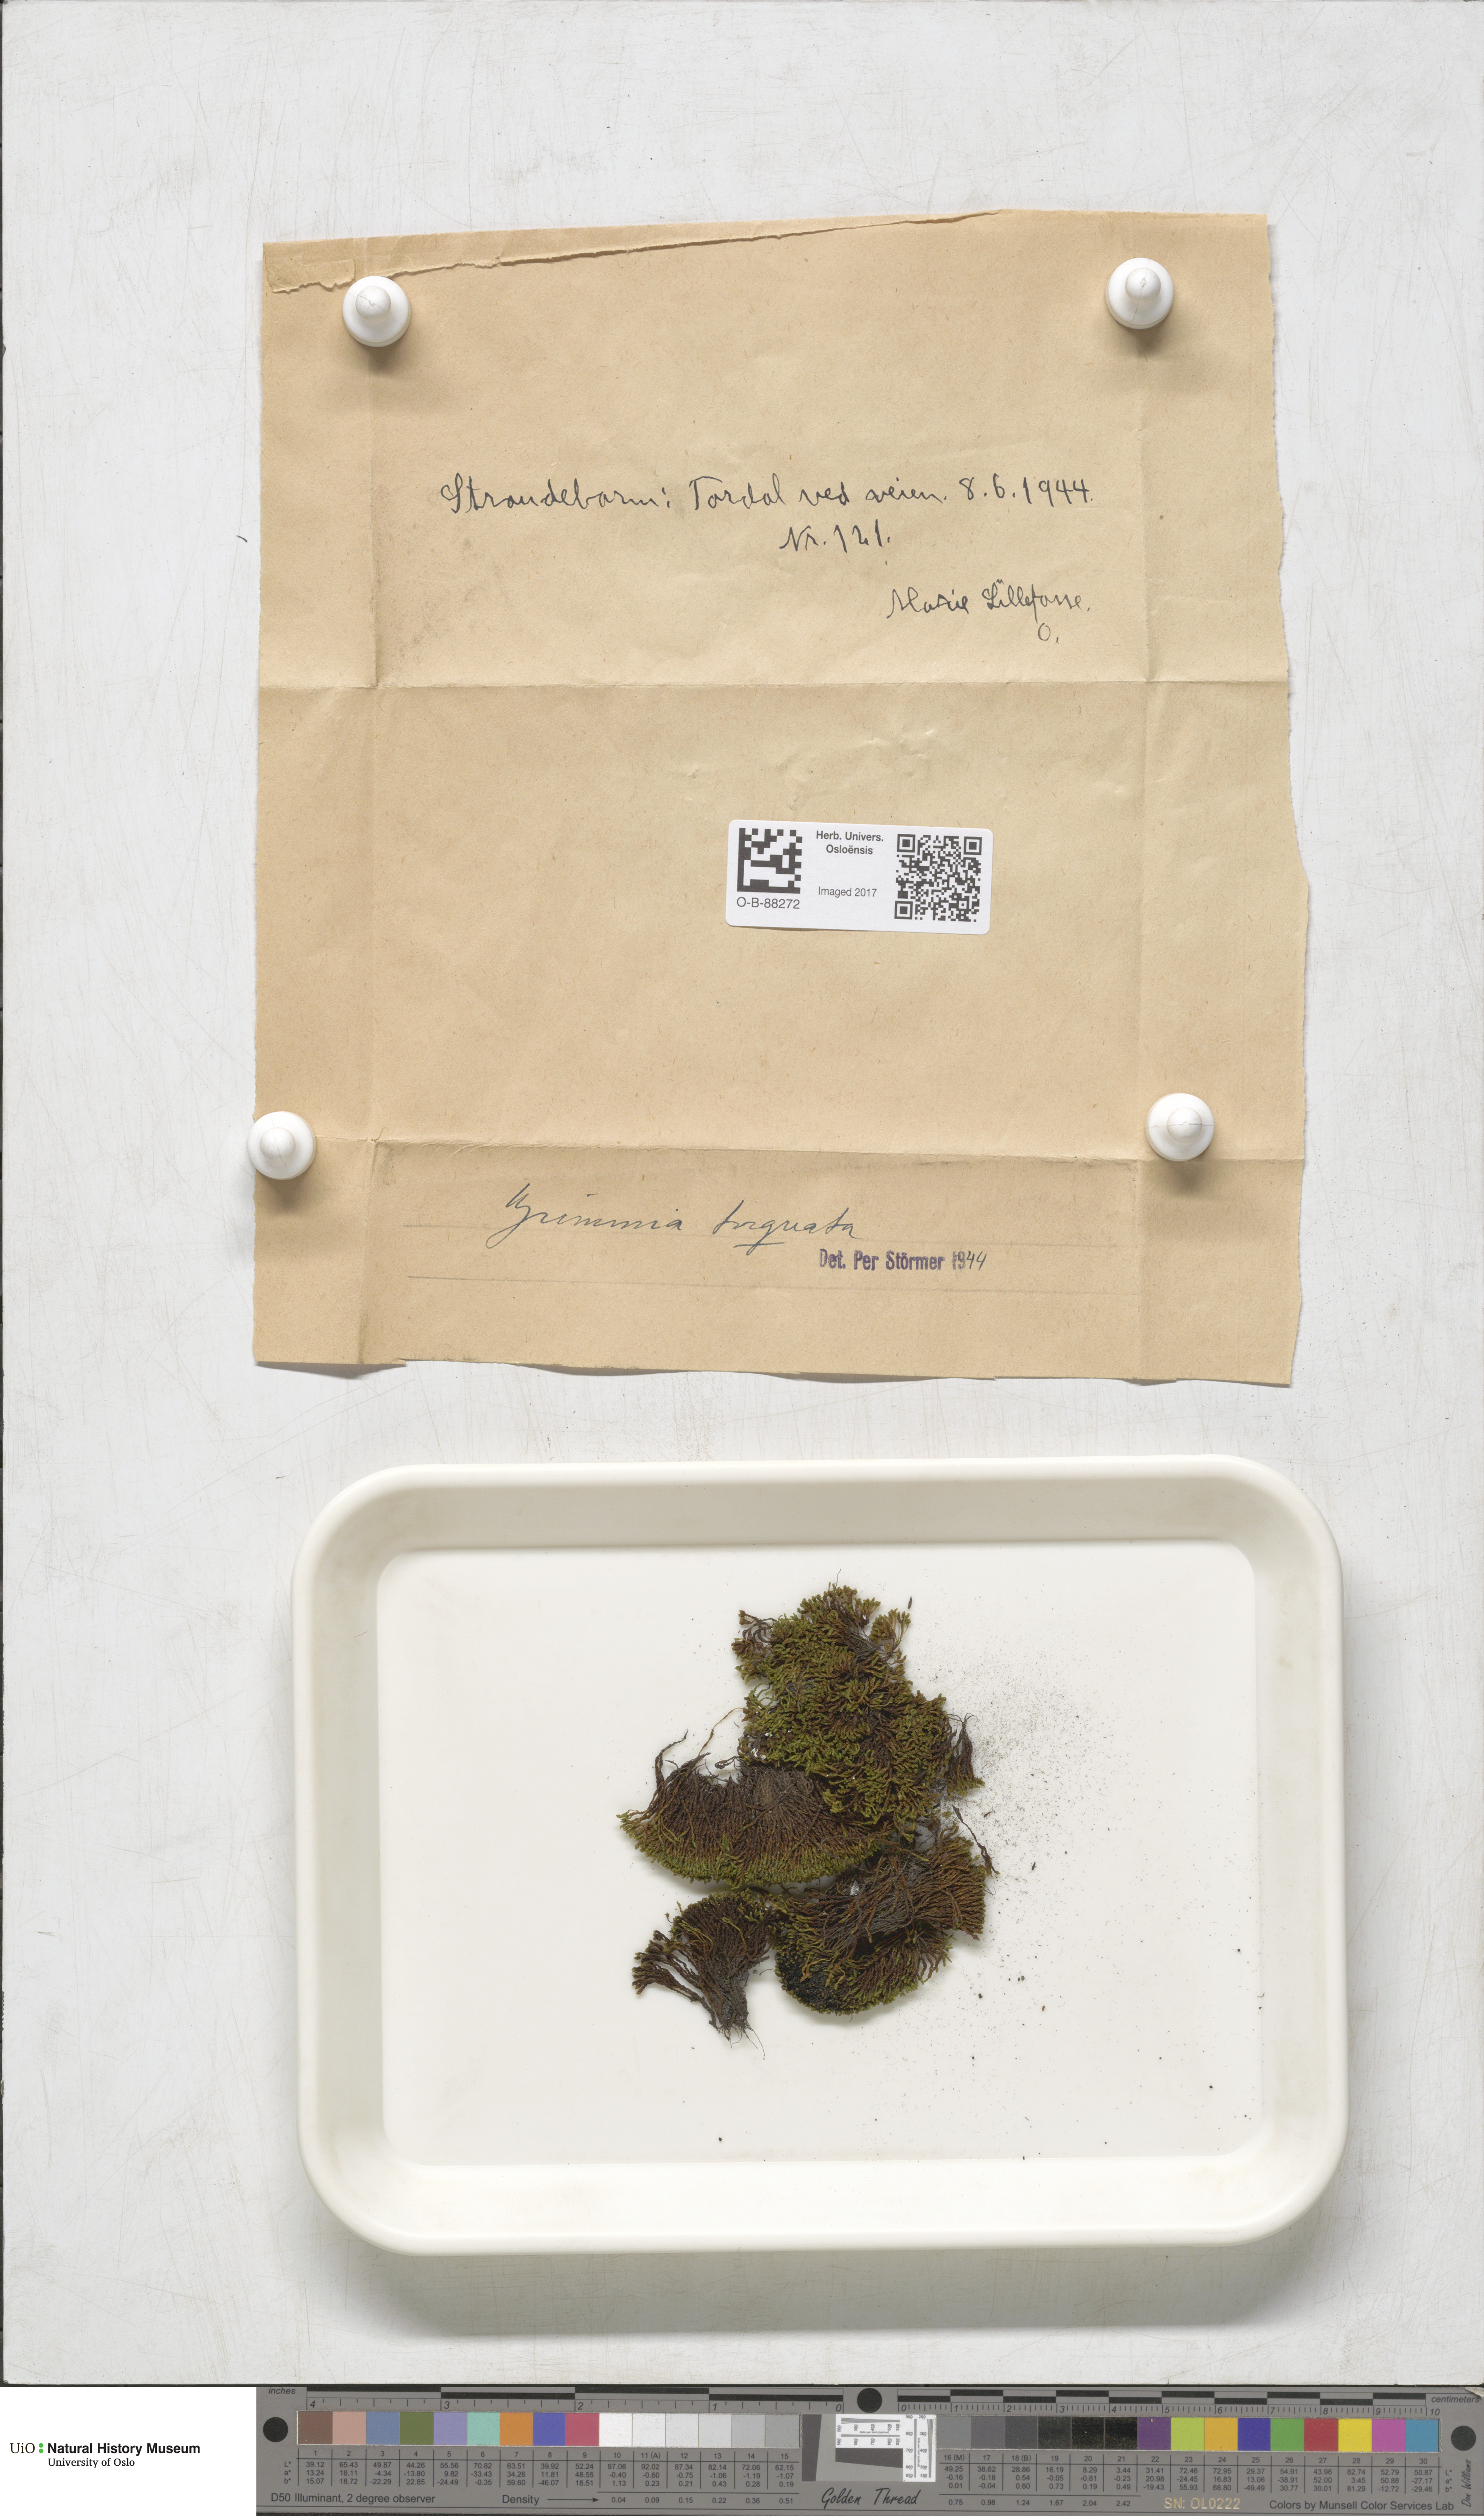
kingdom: Plantae
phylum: Bryophyta
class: Bryopsida
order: Grimmiales
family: Grimmiaceae
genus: Grimmia
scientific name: Grimmia torquata
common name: Twisted grimmia
